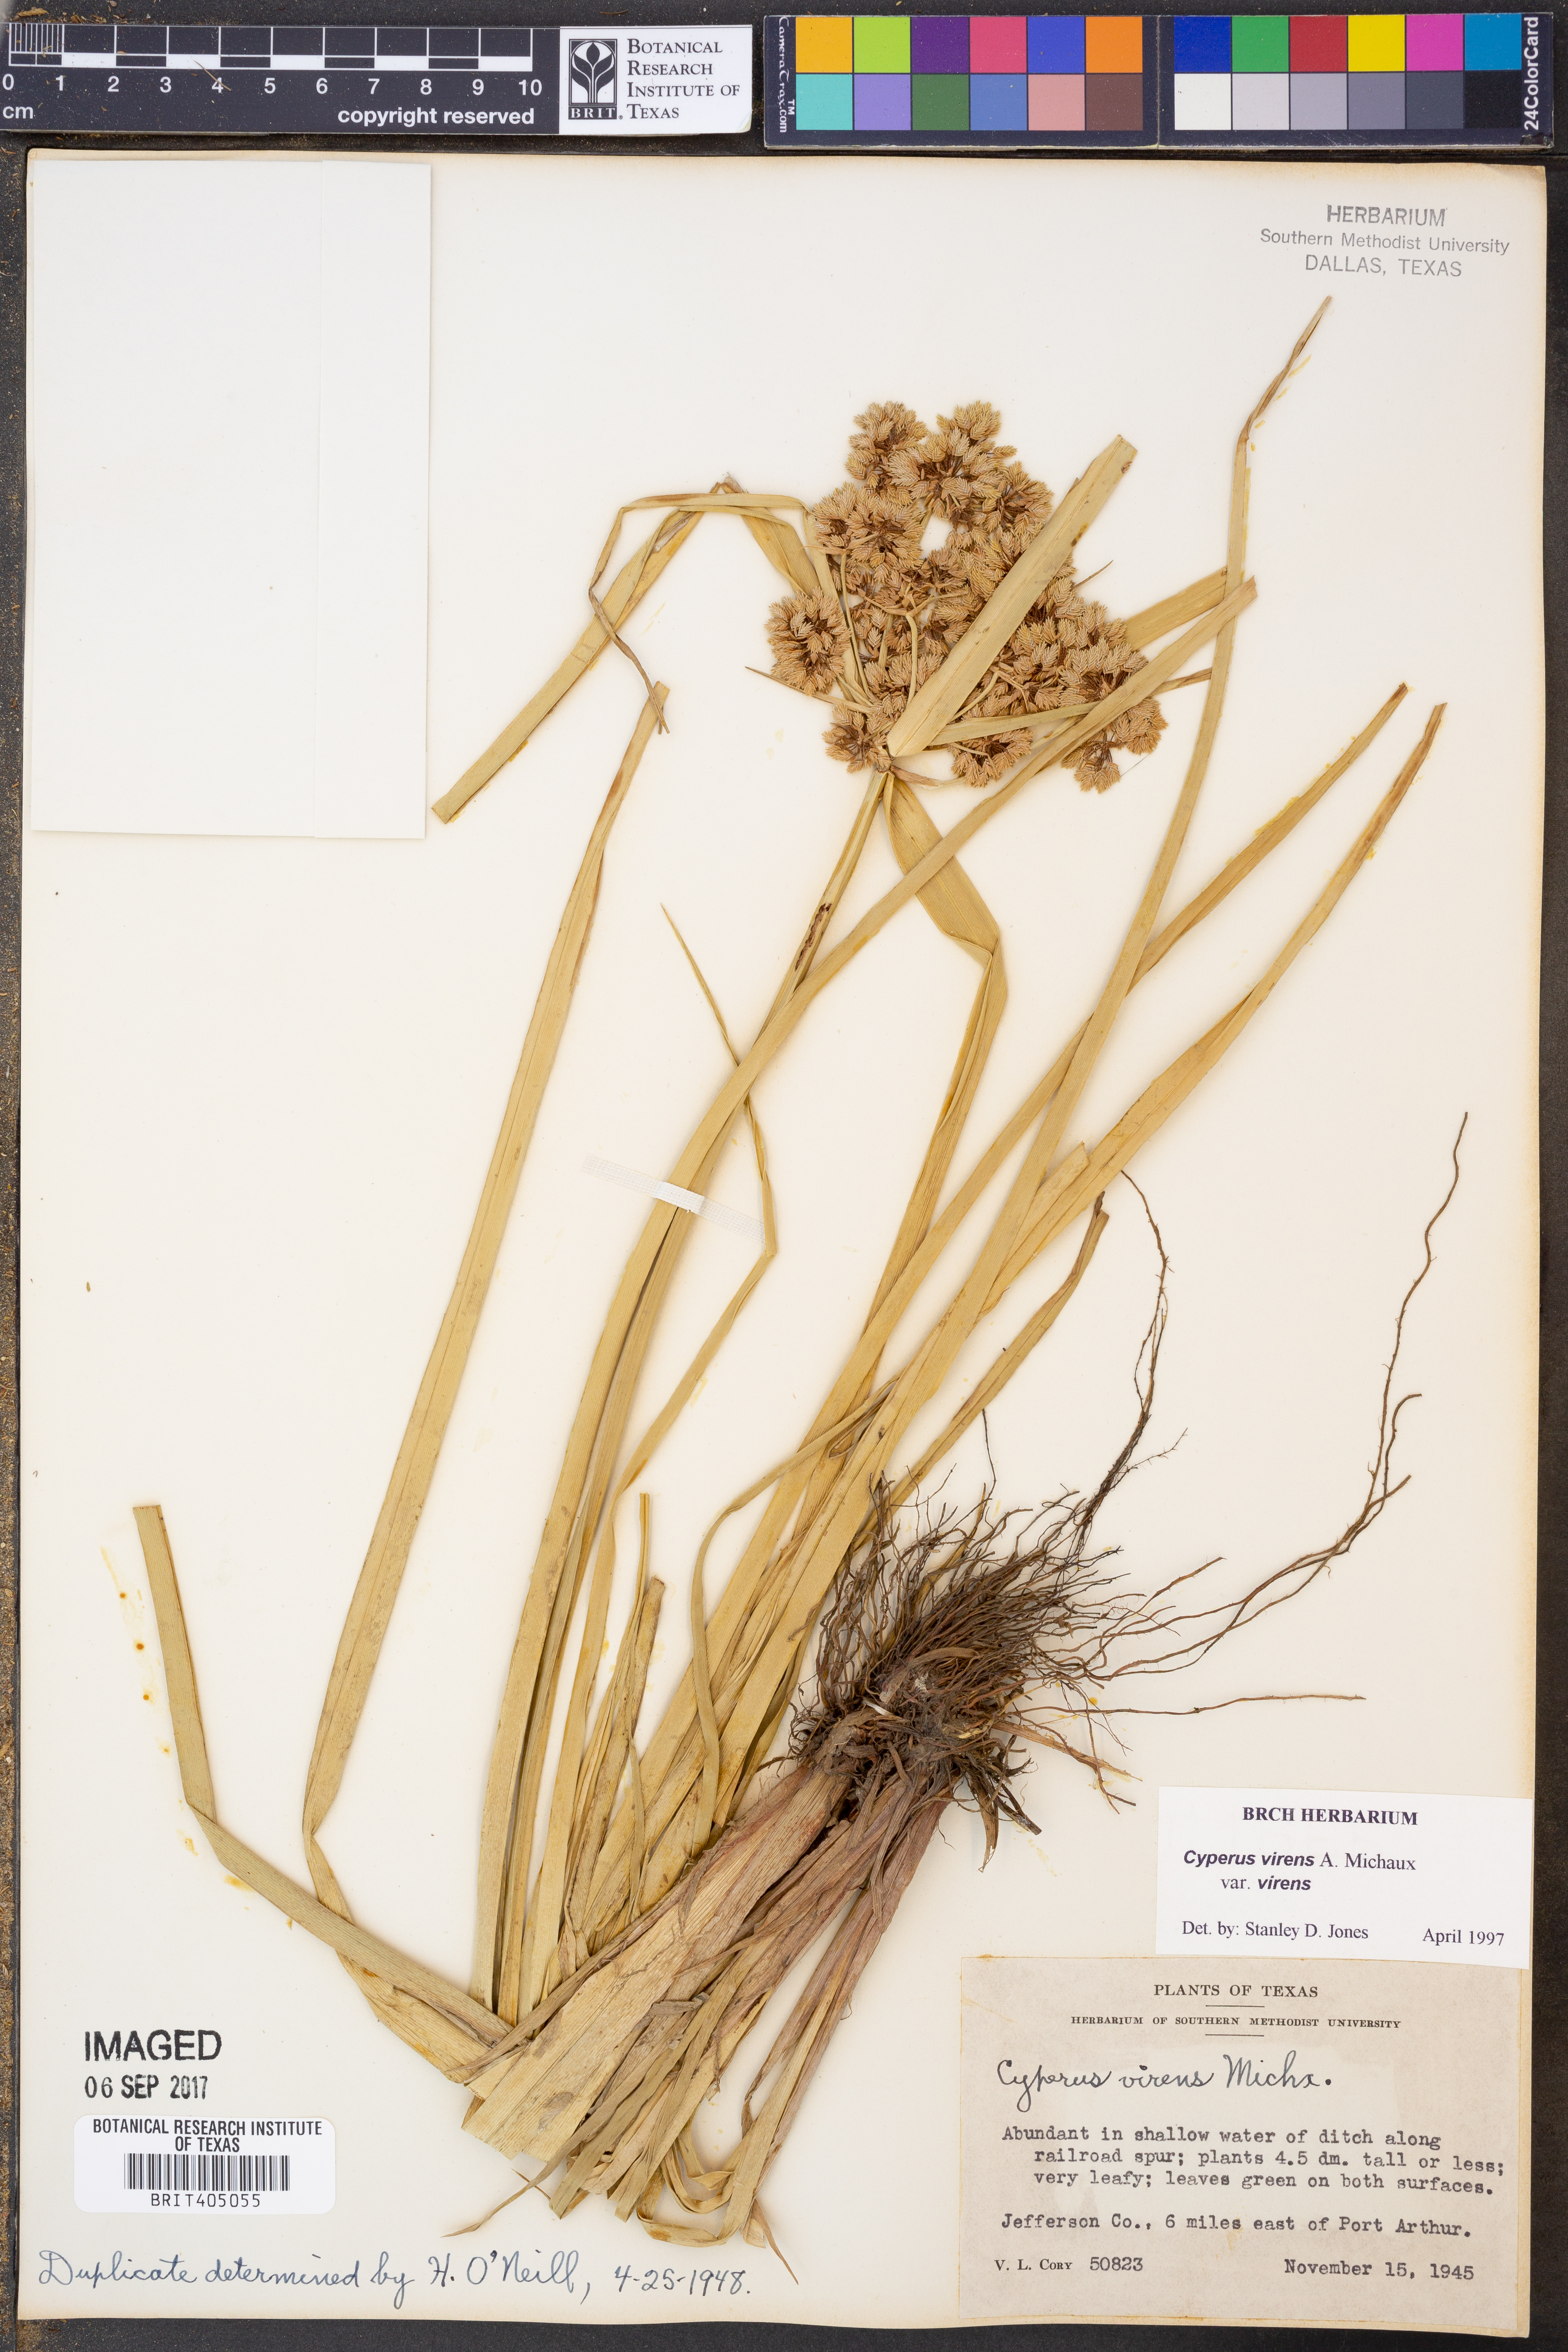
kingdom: Plantae
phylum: Tracheophyta
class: Liliopsida
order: Poales
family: Cyperaceae
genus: Cyperus
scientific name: Cyperus virens
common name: Green flatsedge
